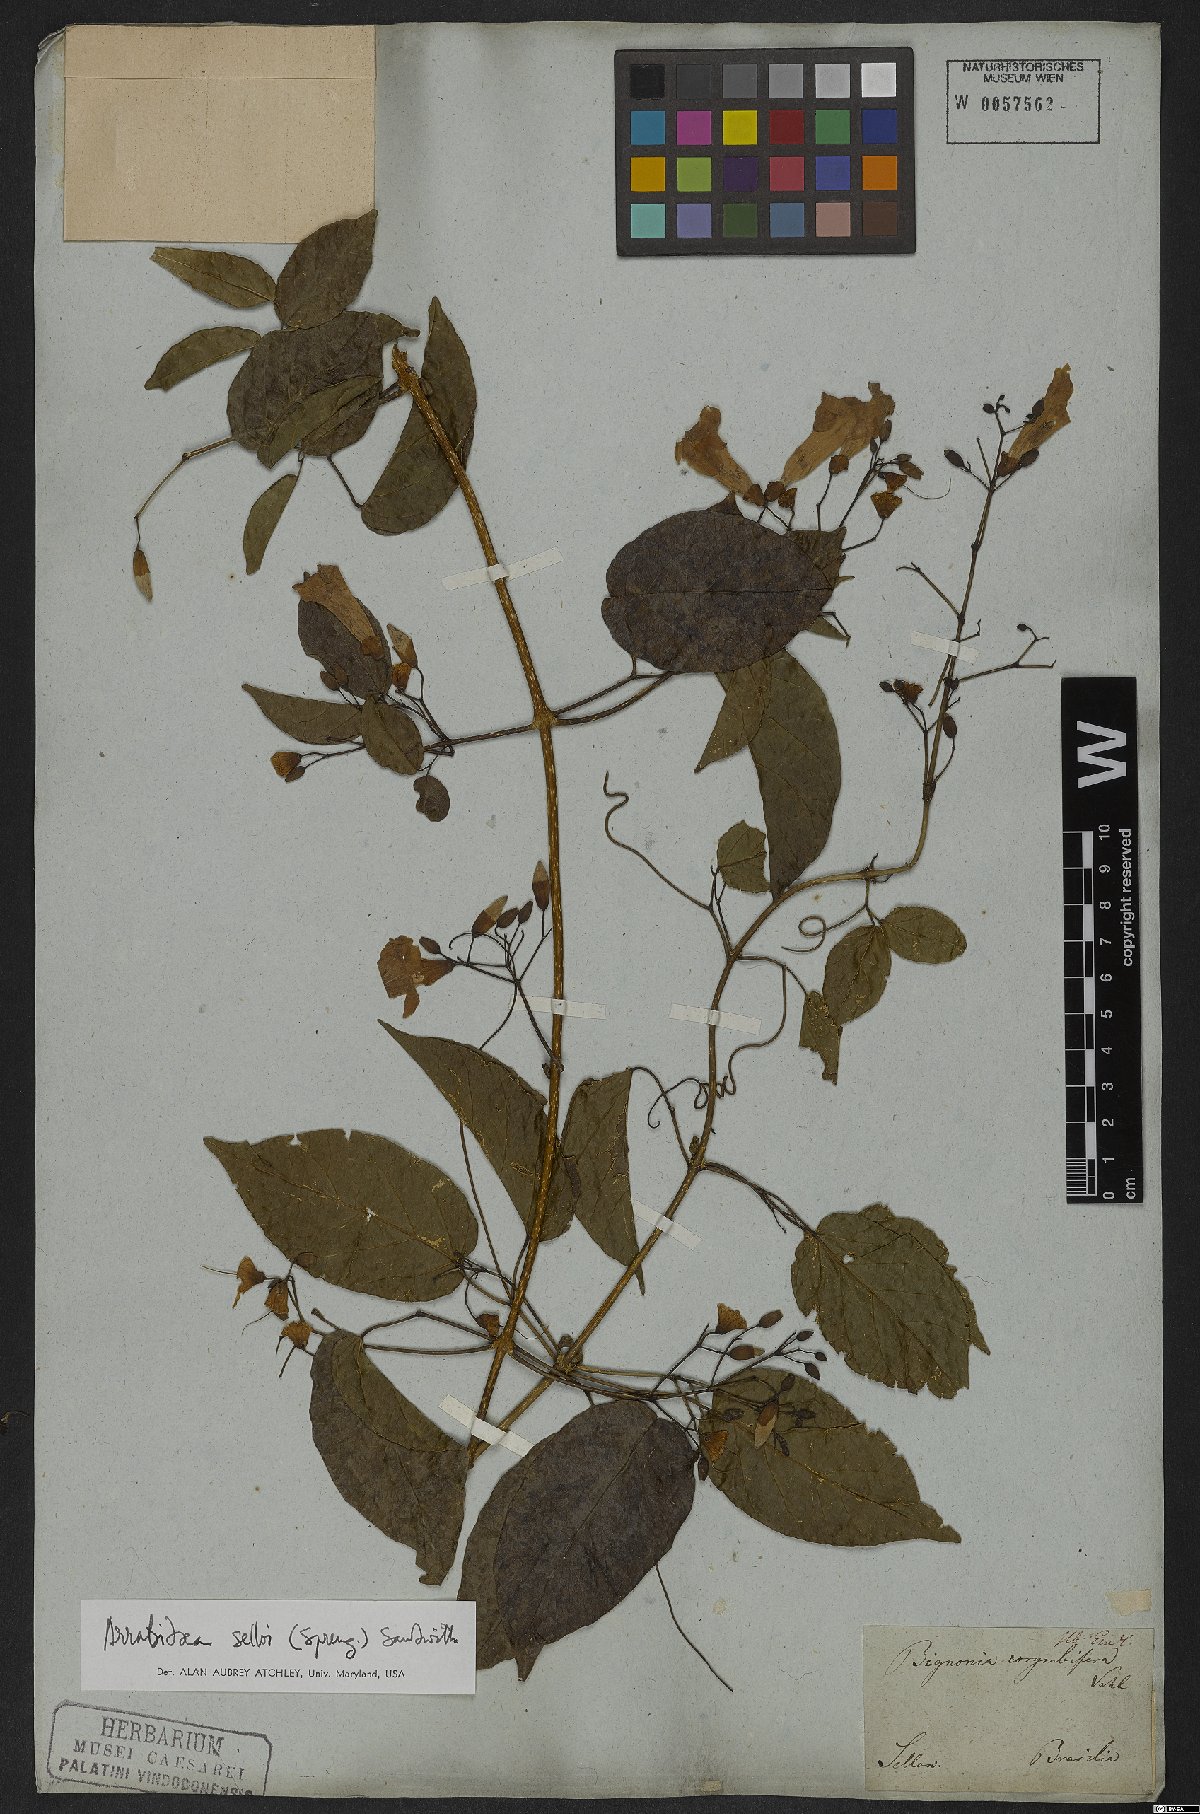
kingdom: Plantae
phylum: Tracheophyta
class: Magnoliopsida
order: Lamiales
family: Bignoniaceae
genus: Tanaecium
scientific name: Tanaecium selloi
